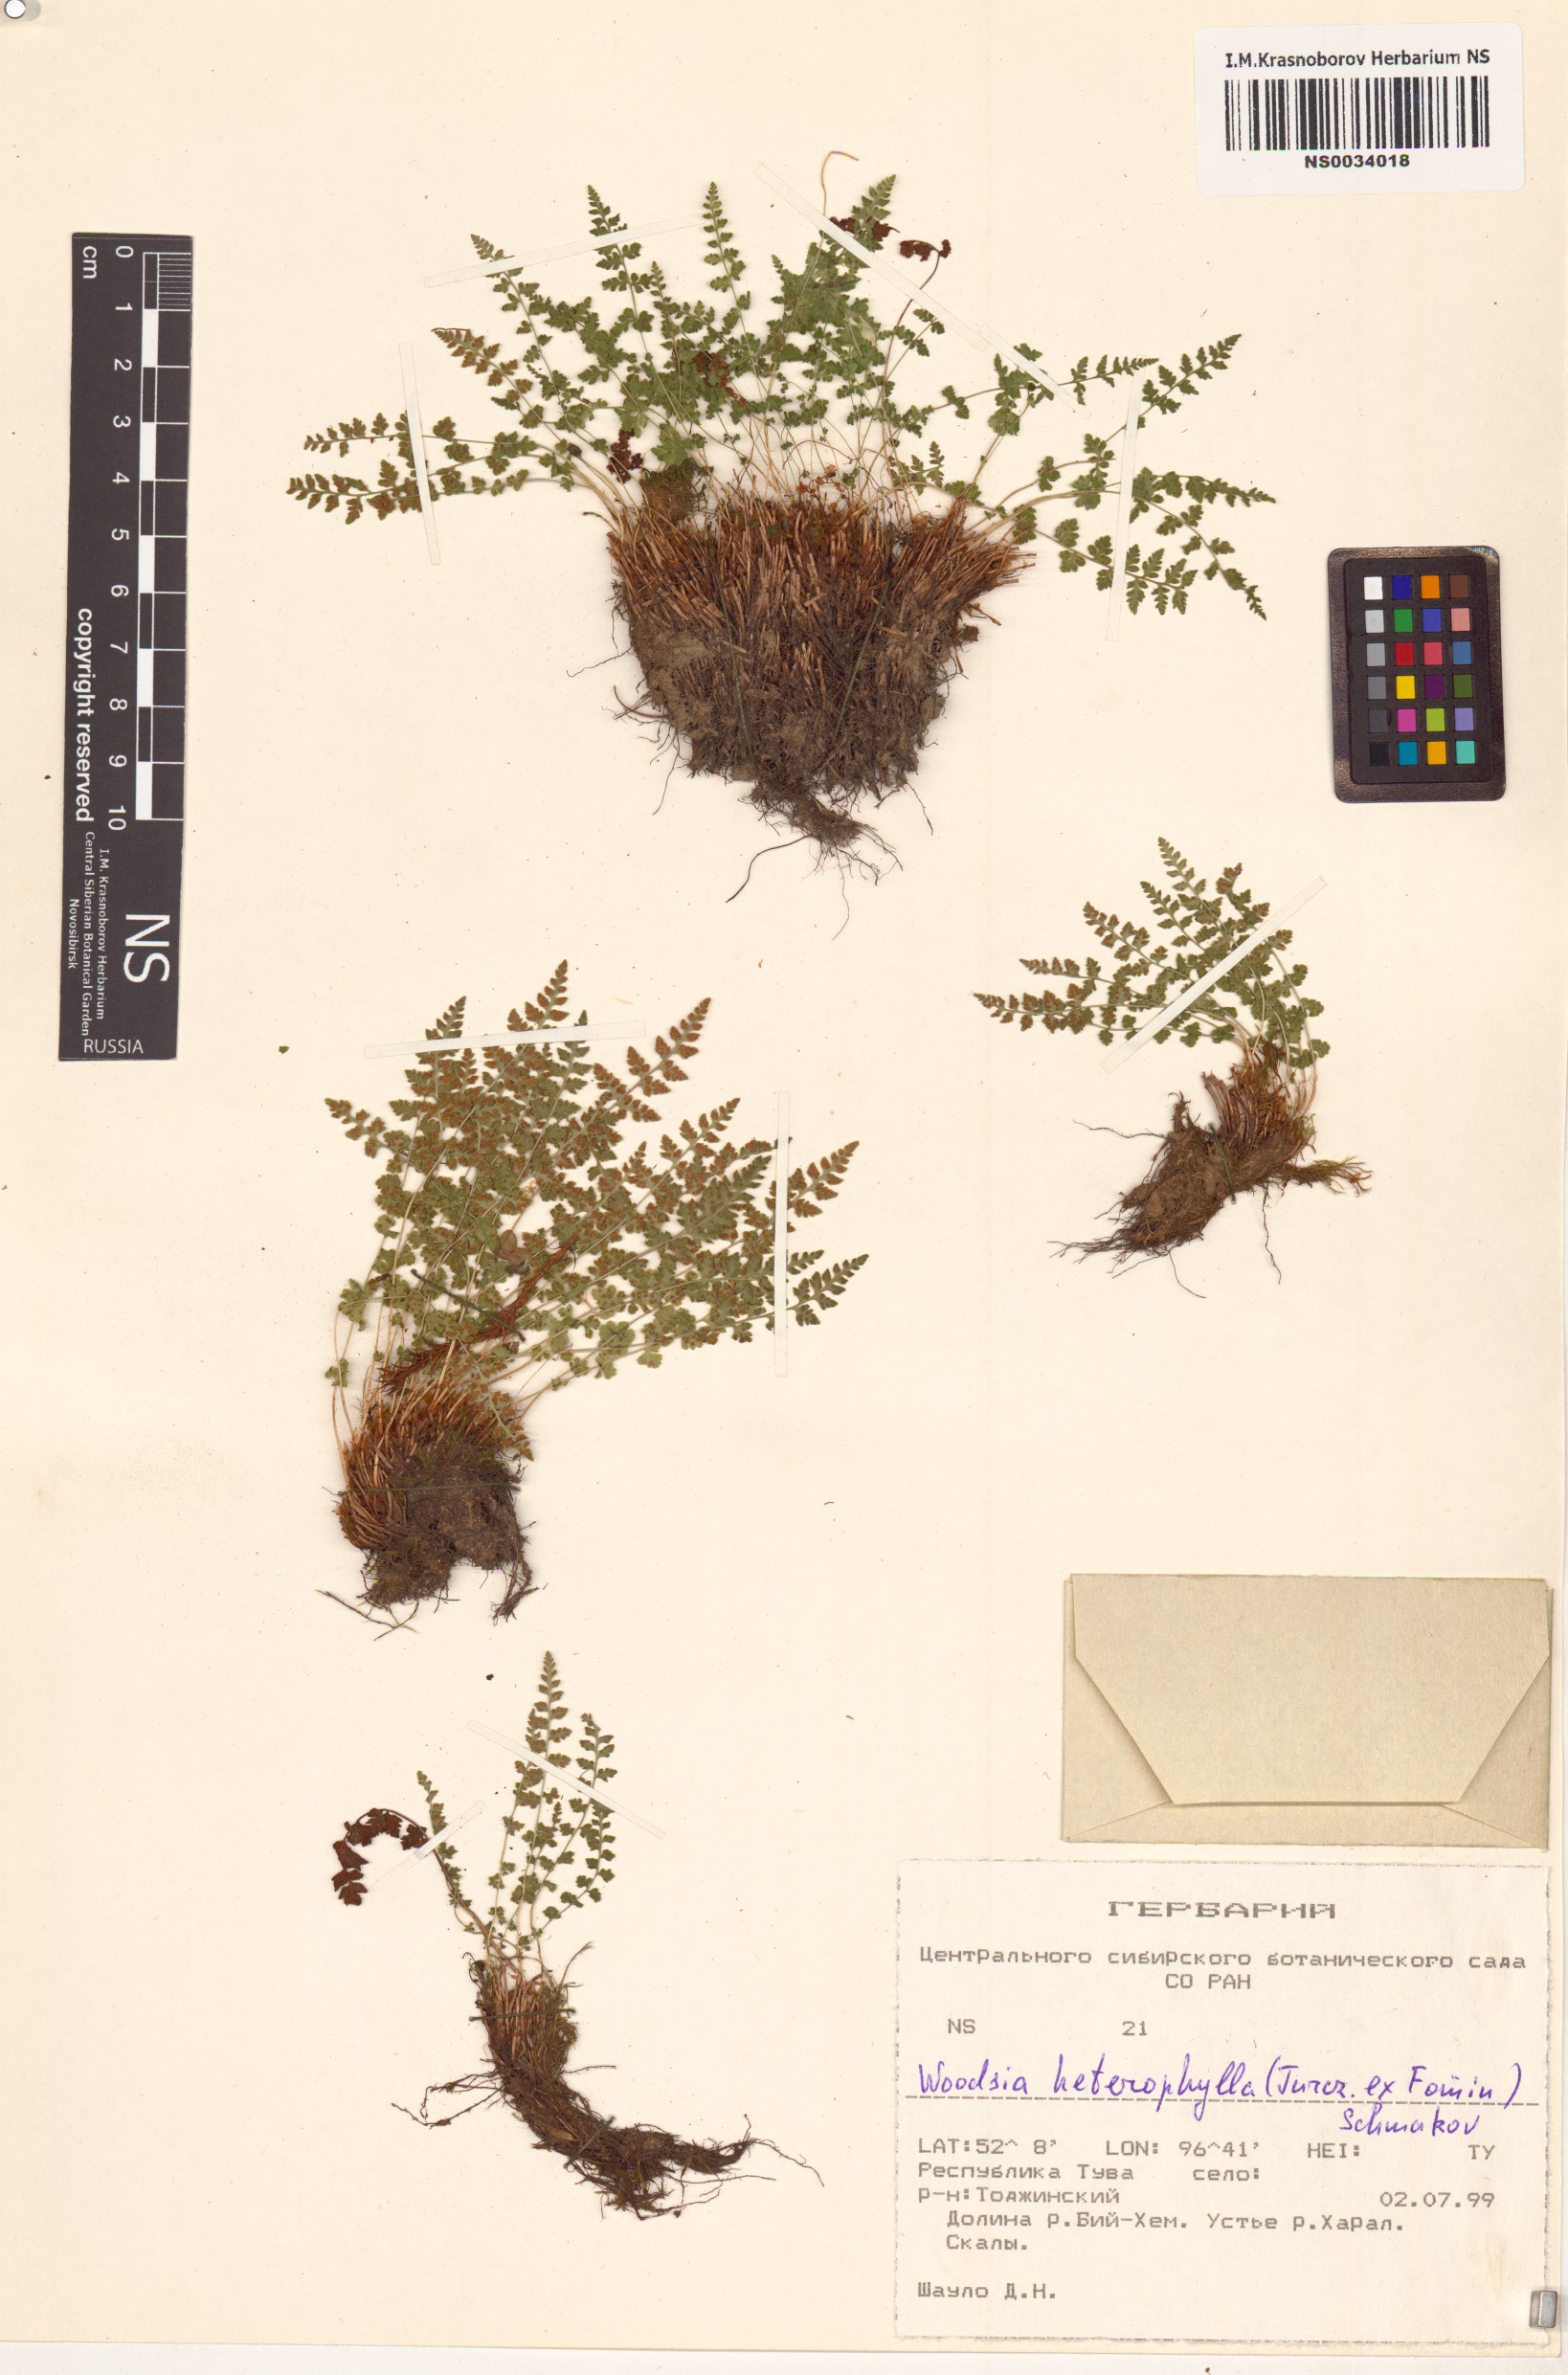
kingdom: Plantae
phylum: Tracheophyta
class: Polypodiopsida
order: Polypodiales
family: Woodsiaceae
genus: Woodsia
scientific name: Woodsia pulchella
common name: Graceful woodsia
